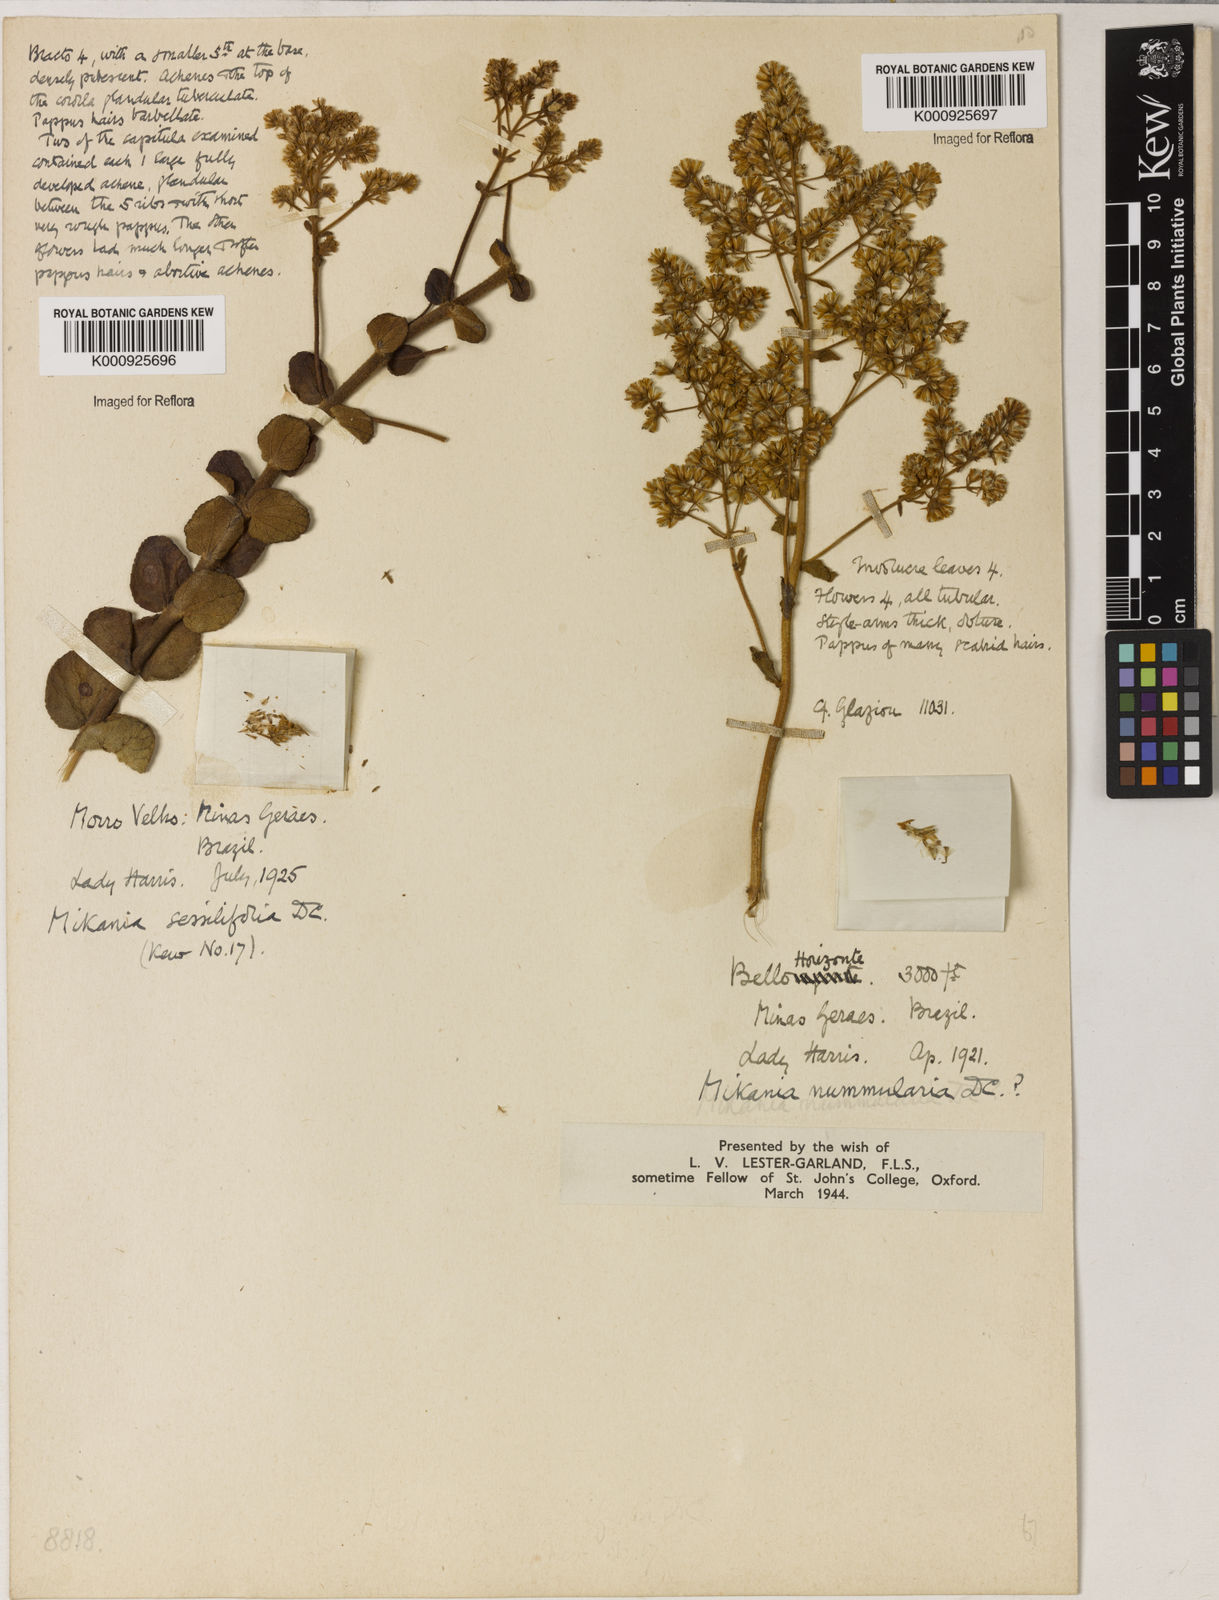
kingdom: Plantae
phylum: Tracheophyta
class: Magnoliopsida
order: Asterales
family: Asteraceae
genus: Mikania
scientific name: Mikania nummularia
